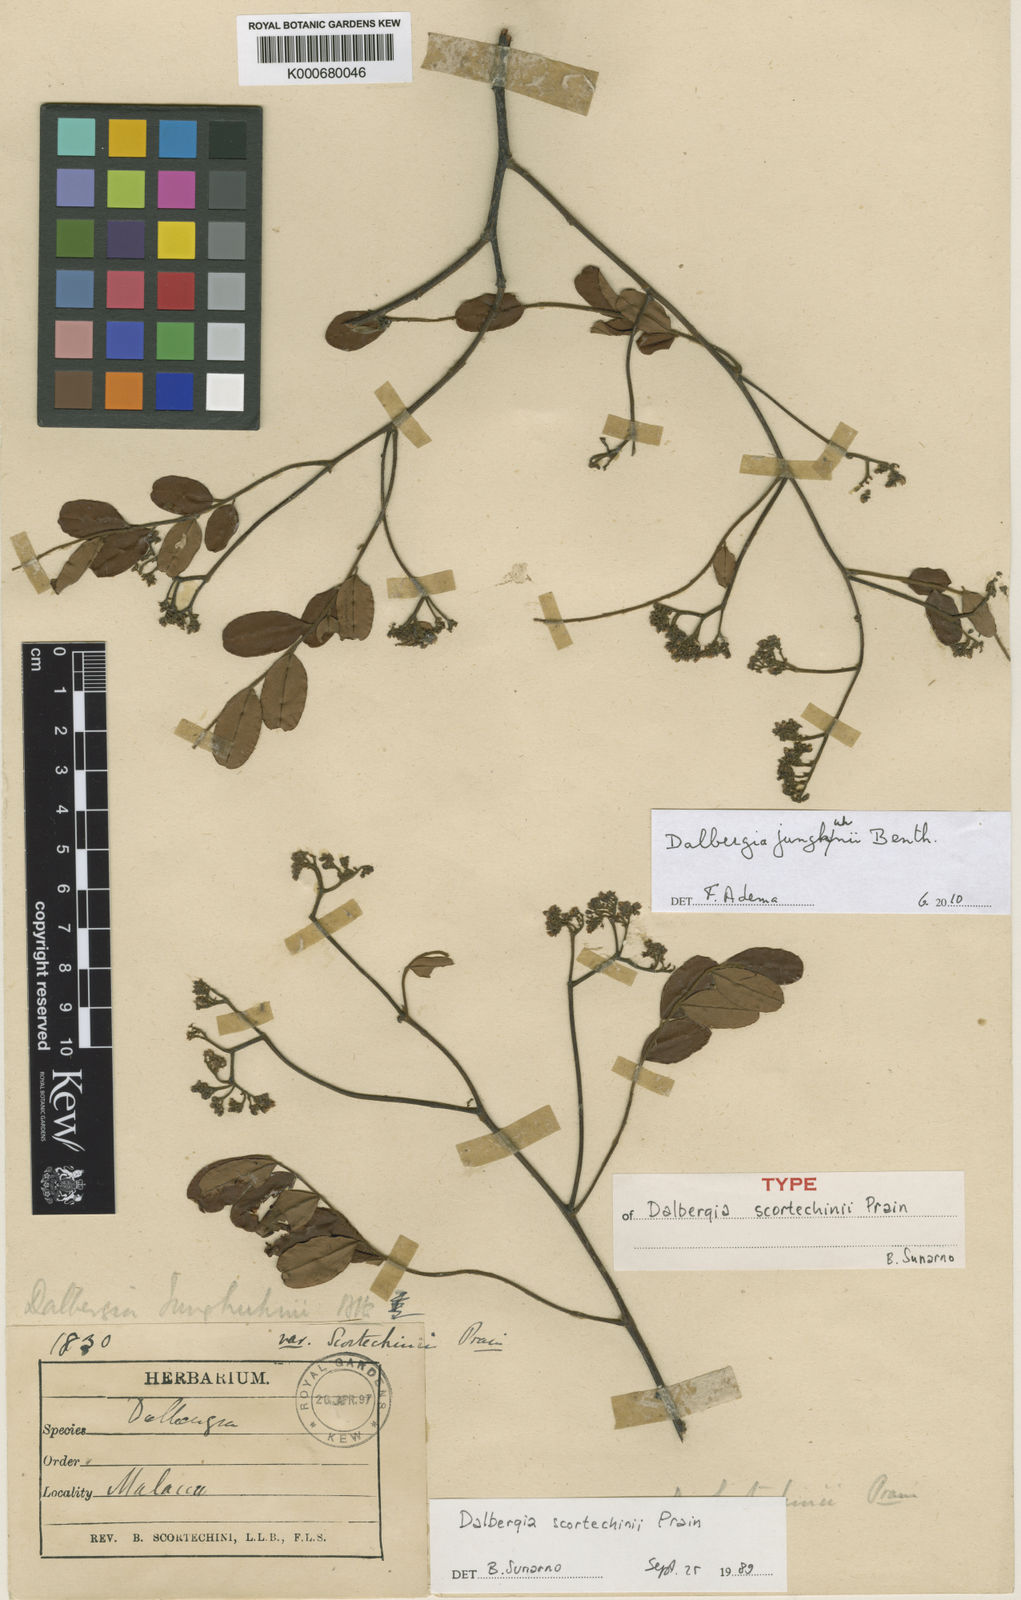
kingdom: Plantae
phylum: Tracheophyta
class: Magnoliopsida
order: Fabales
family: Fabaceae
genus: Dalbergia
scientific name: Dalbergia junghuhnii
